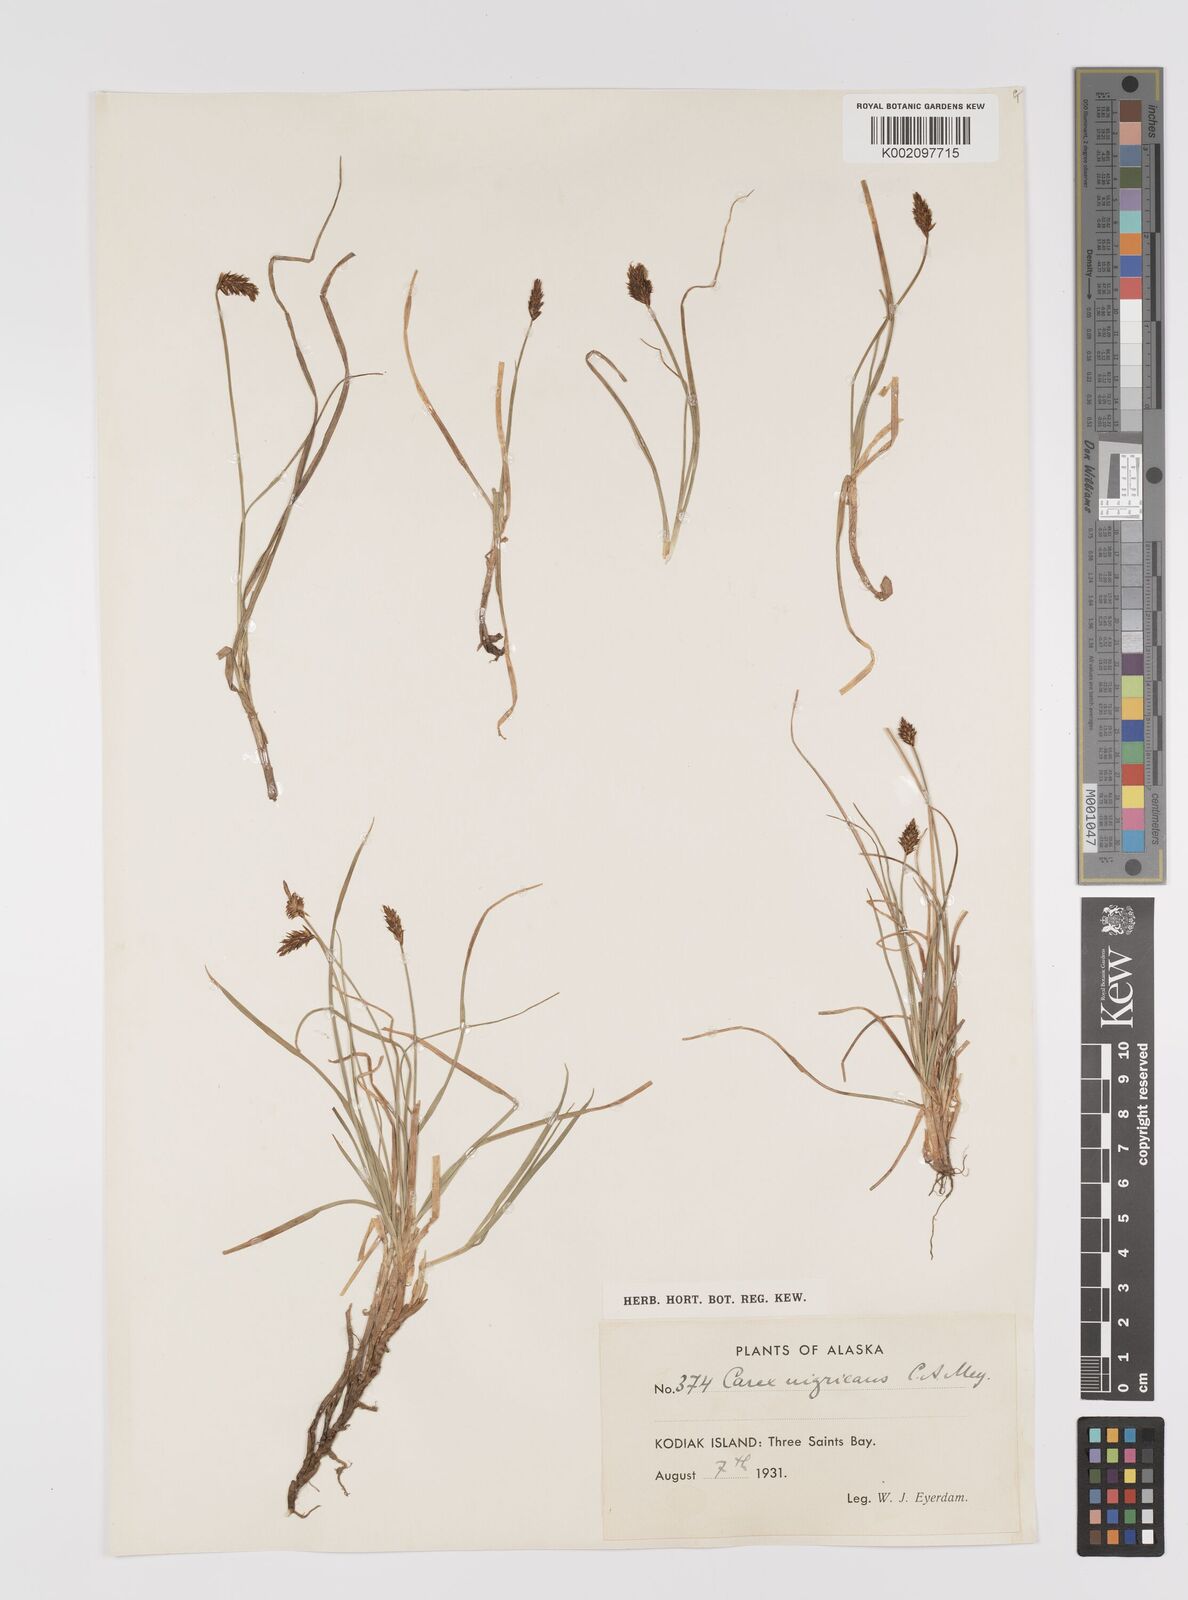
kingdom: Plantae
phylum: Tracheophyta
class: Liliopsida
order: Poales
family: Cyperaceae
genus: Carex
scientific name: Carex nardina
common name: Nard sedge
